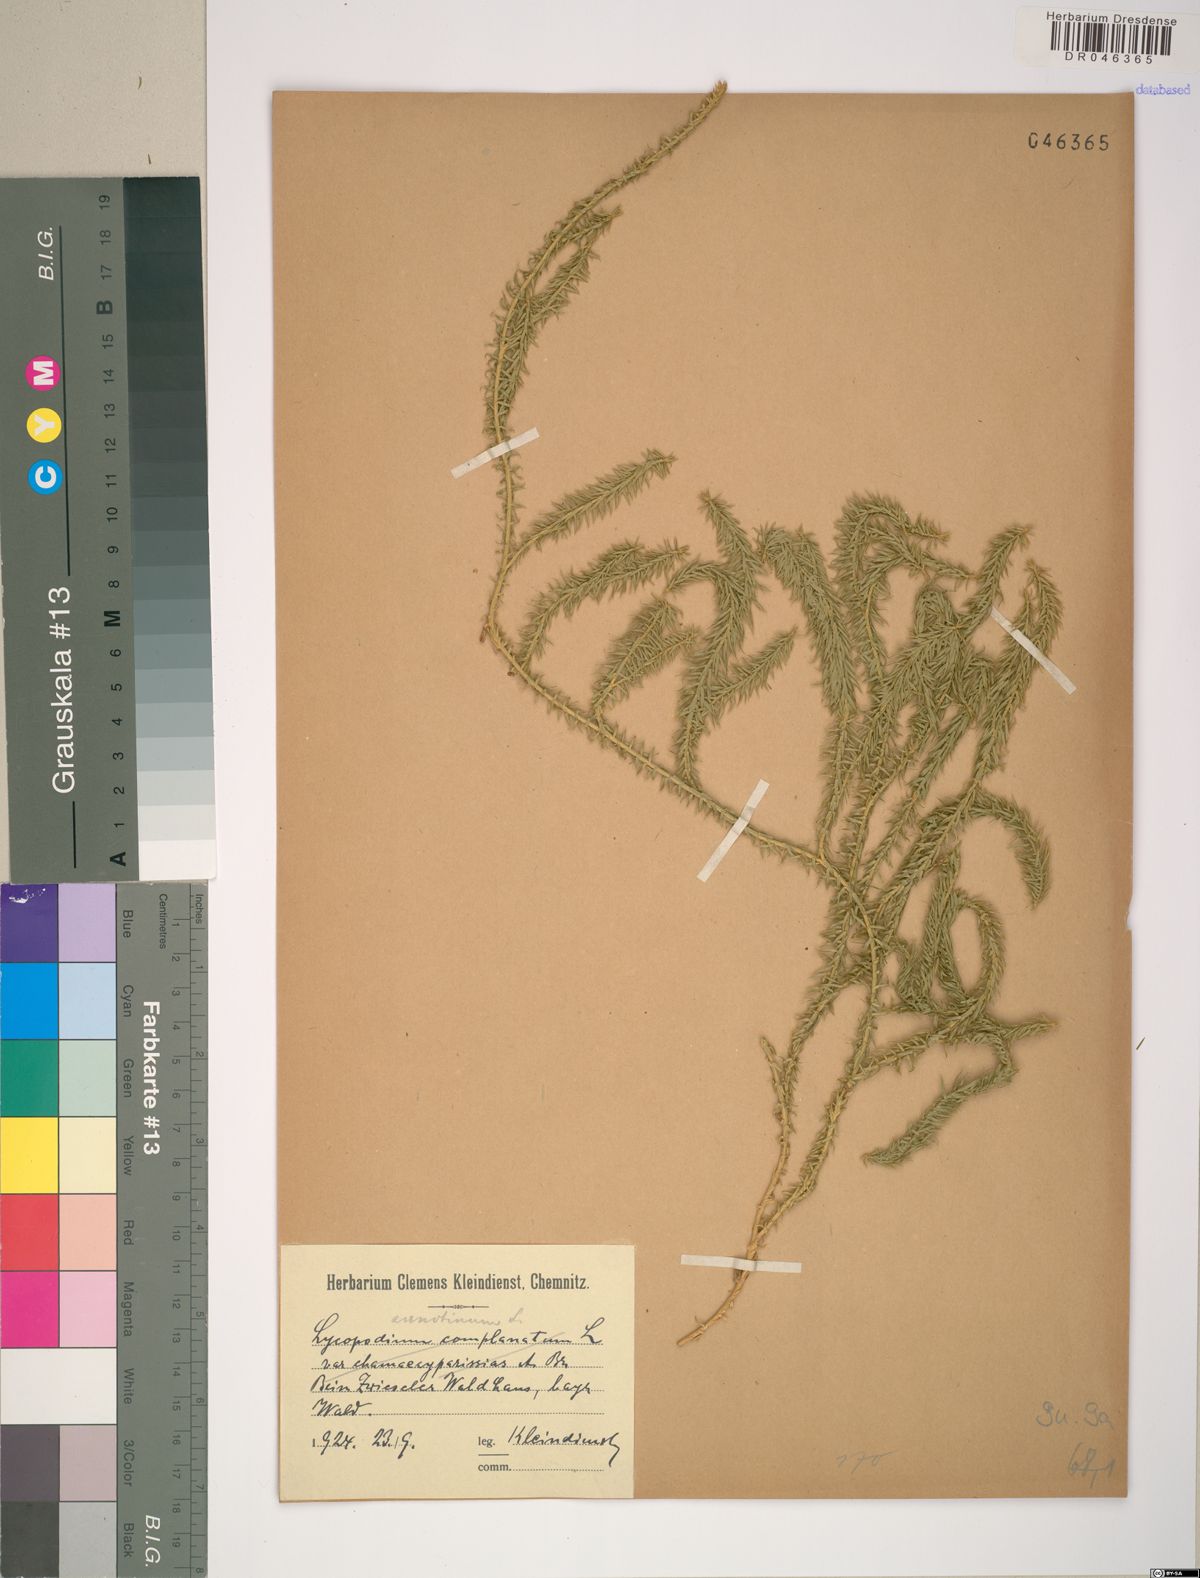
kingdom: Plantae
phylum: Tracheophyta
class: Lycopodiopsida
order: Lycopodiales
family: Lycopodiaceae
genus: Spinulum
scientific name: Spinulum annotinum
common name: Interrupted club-moss
